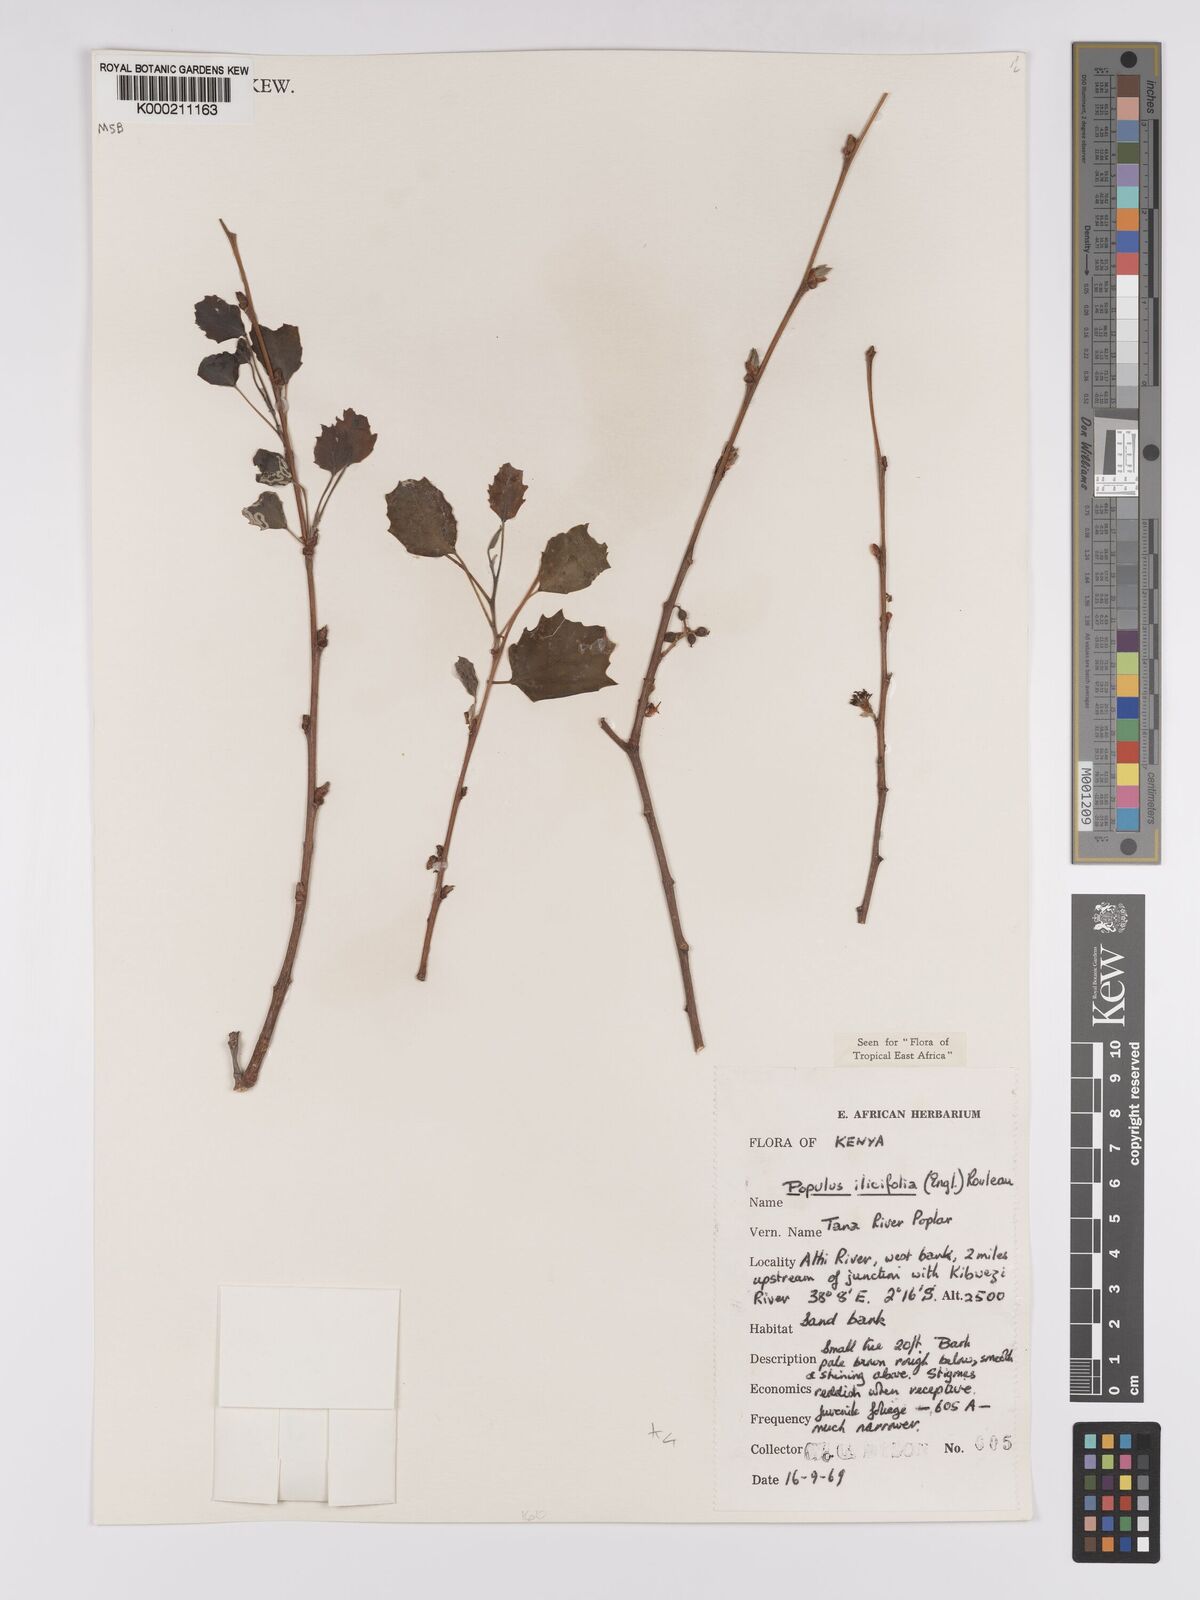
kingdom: Plantae
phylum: Tracheophyta
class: Magnoliopsida
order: Malpighiales
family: Salicaceae
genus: Populus
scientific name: Populus ilicifolia
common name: Tana river poplar
